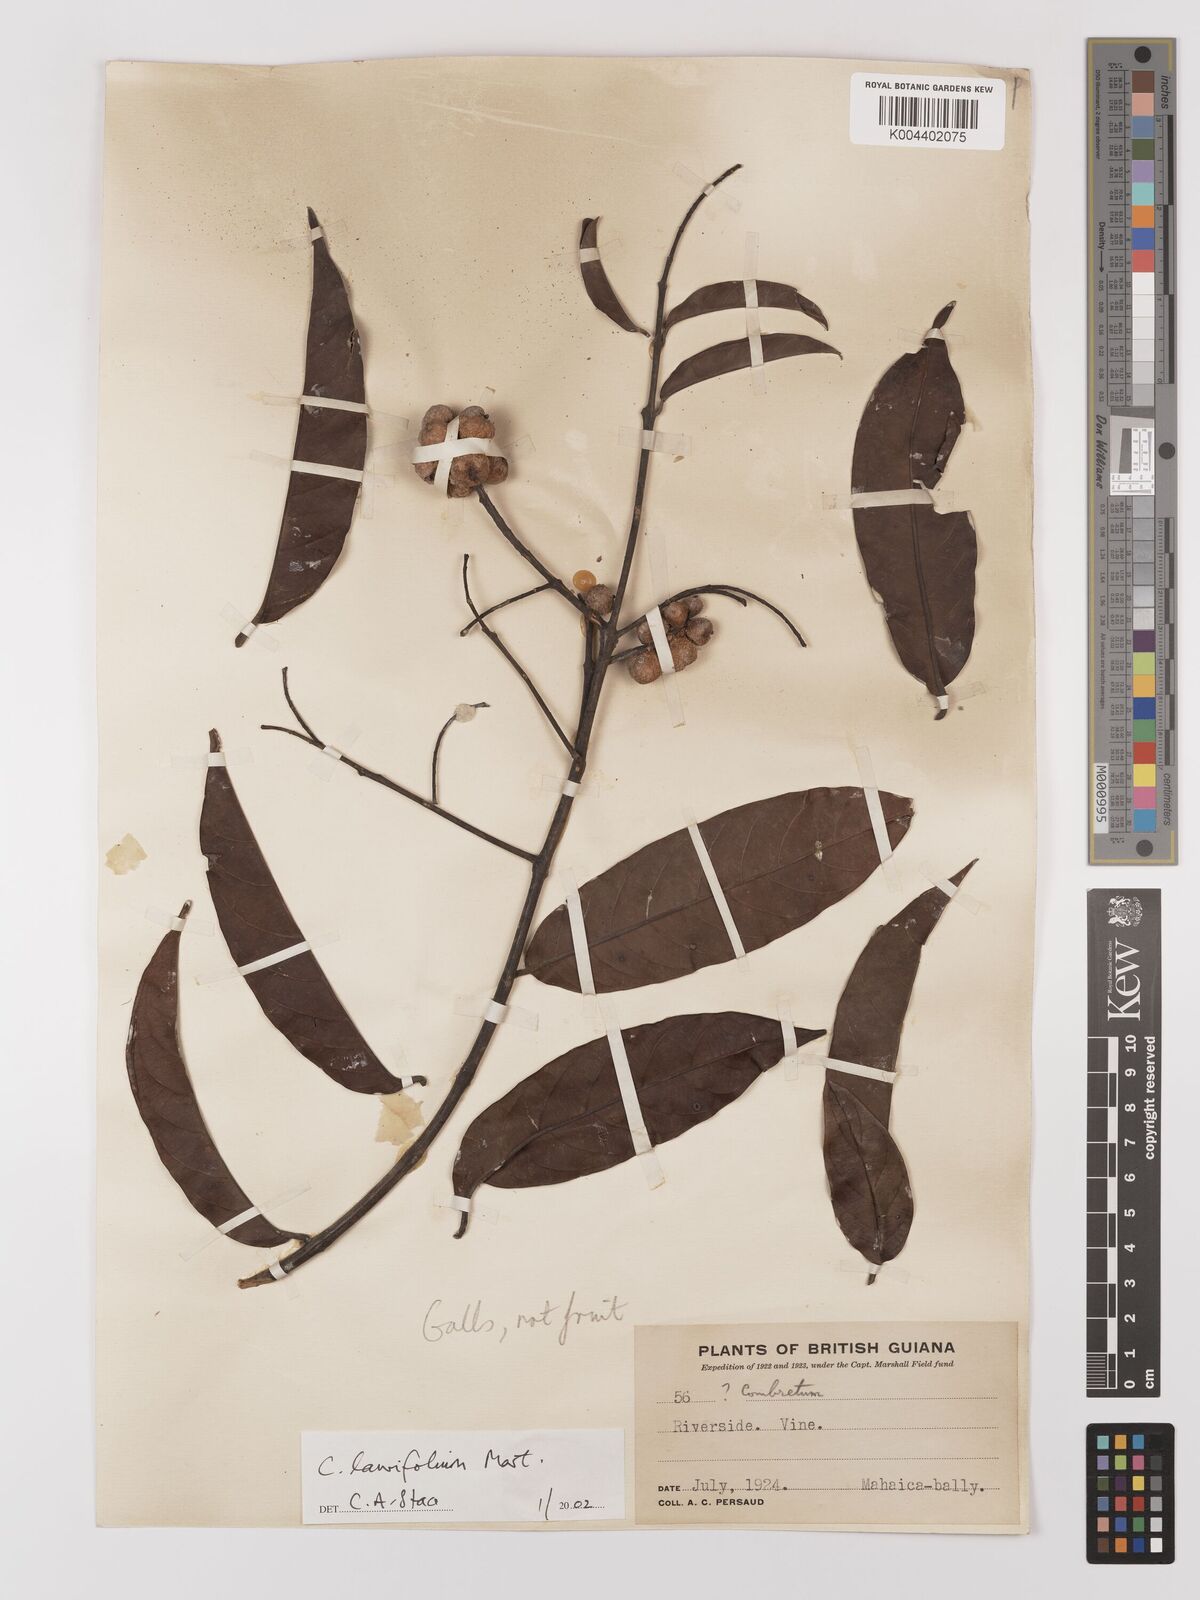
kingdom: Plantae
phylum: Tracheophyta
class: Magnoliopsida
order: Myrtales
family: Combretaceae
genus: Combretum
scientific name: Combretum
